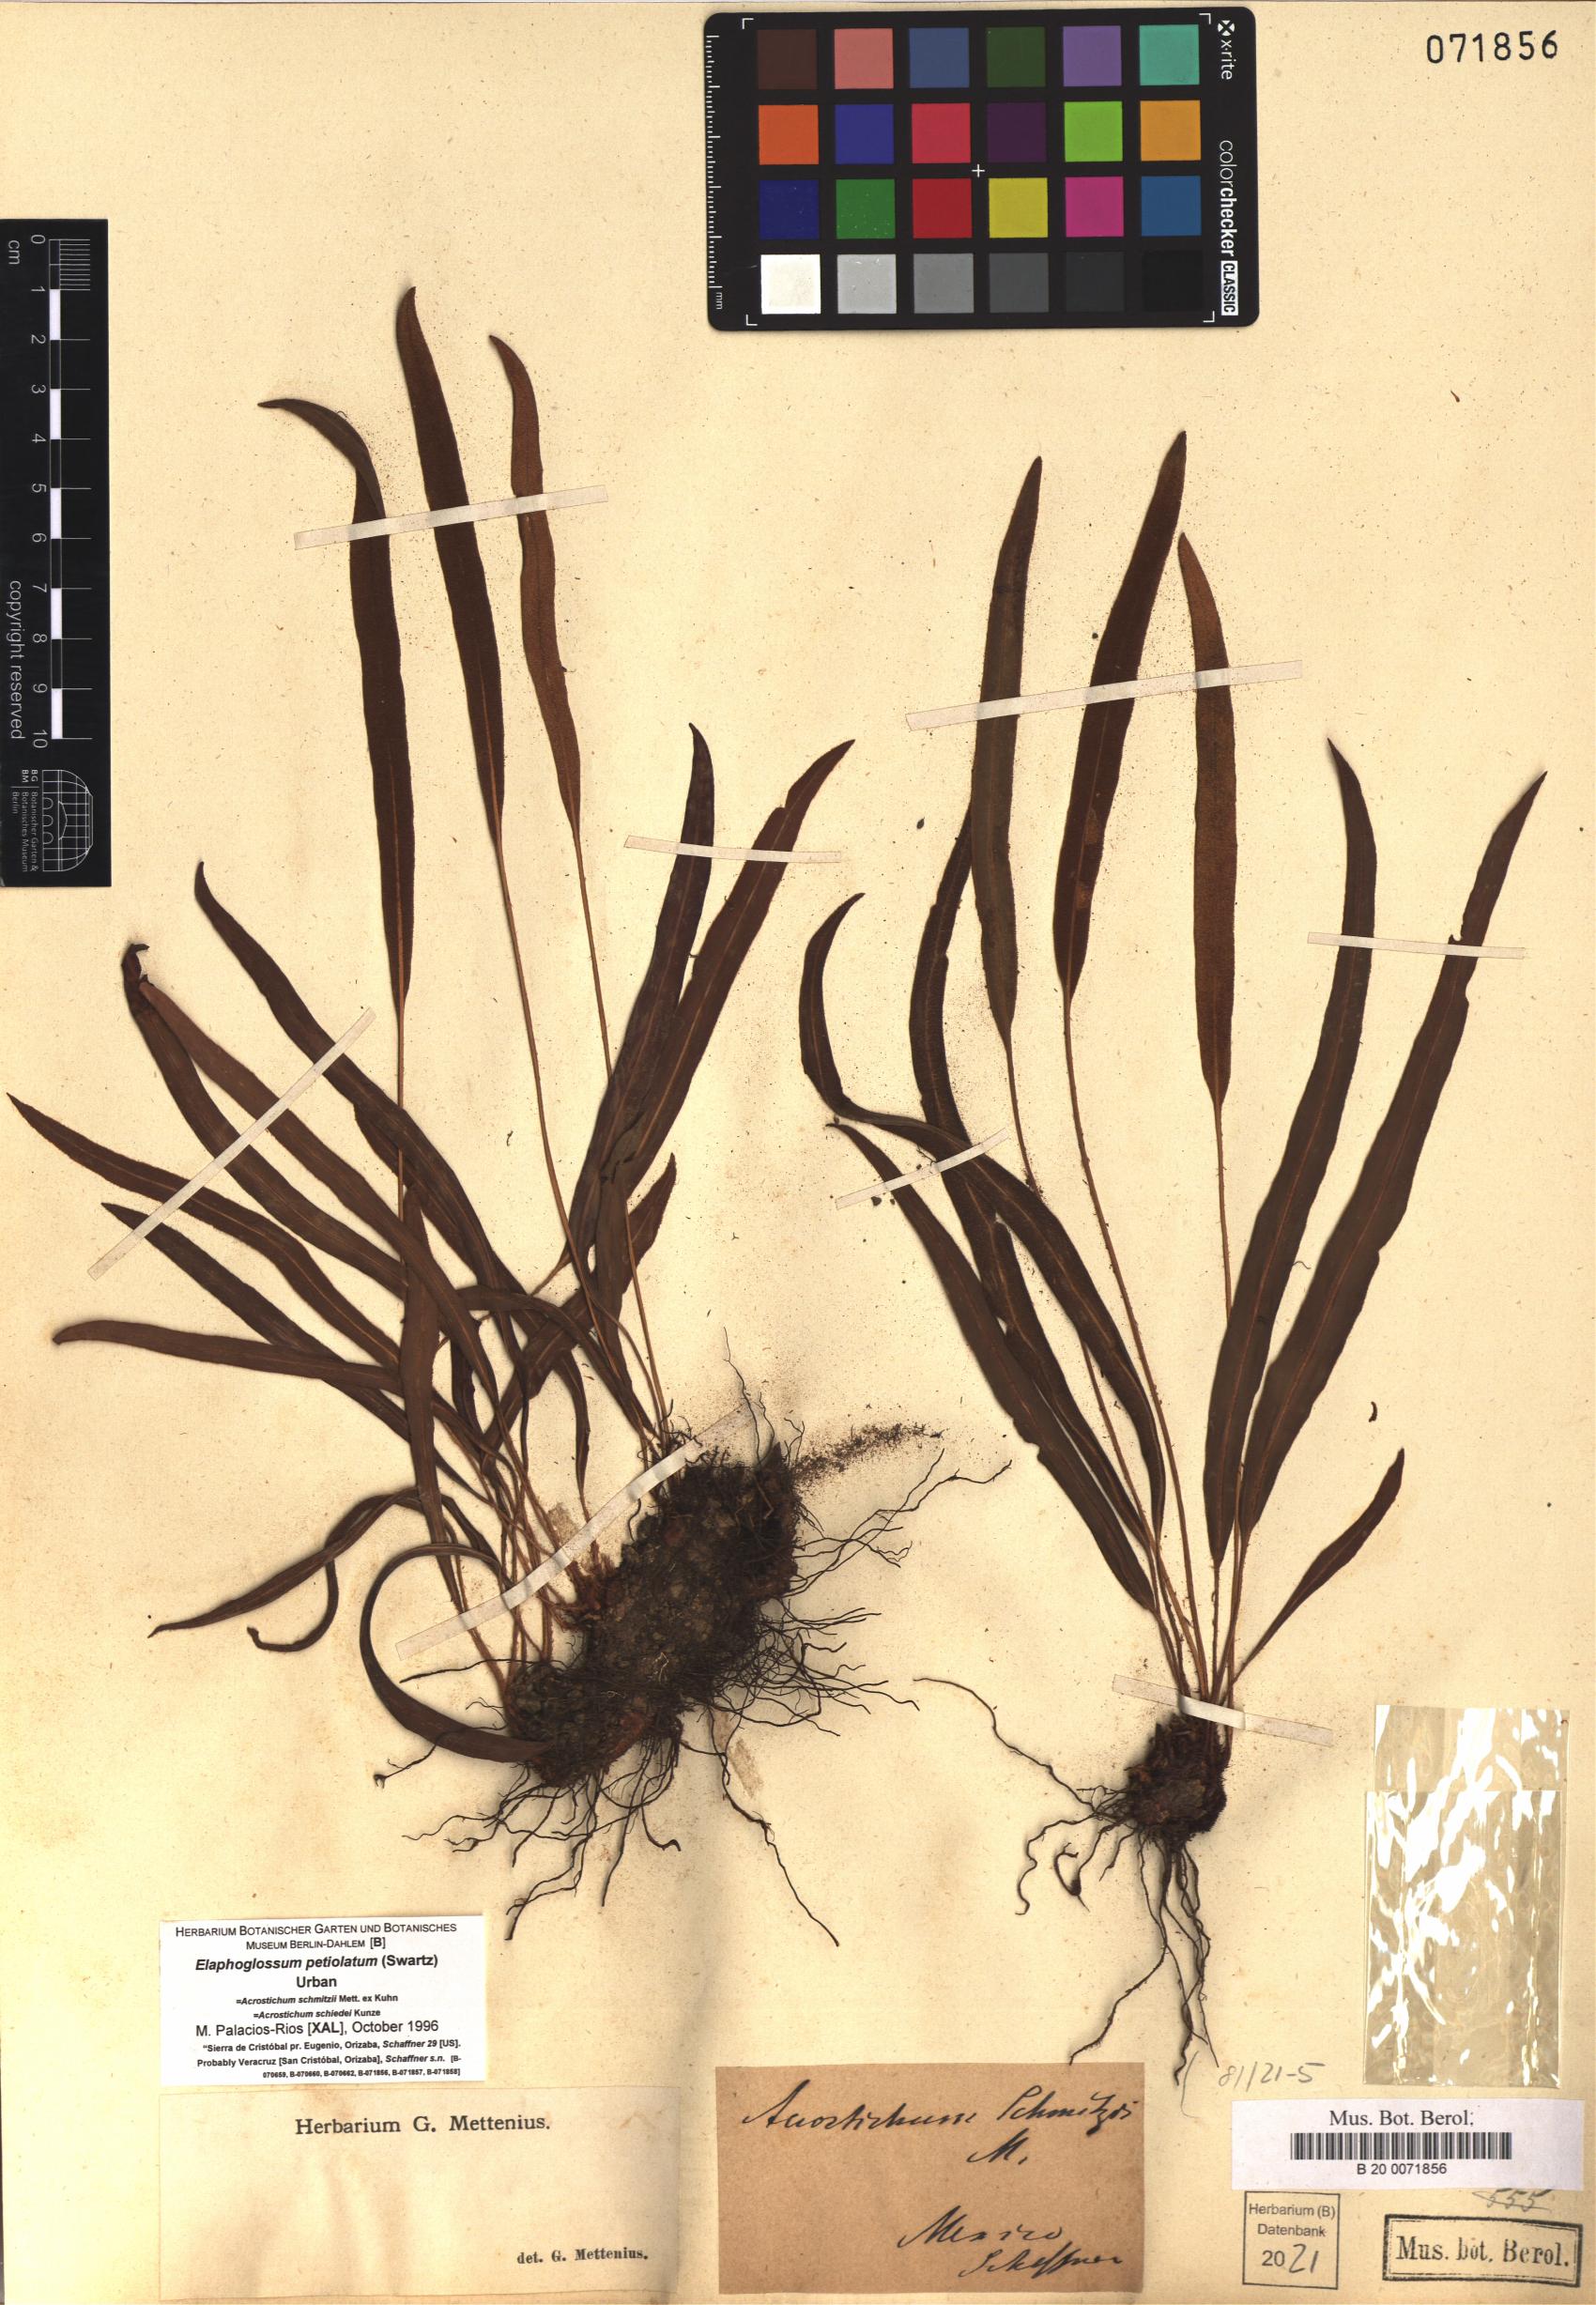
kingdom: Plantae
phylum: Tracheophyta
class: Polypodiopsida
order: Polypodiales
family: Dryopteridaceae
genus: Elaphoglossum
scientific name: Elaphoglossum petiolatum
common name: Graceful tonguefern
